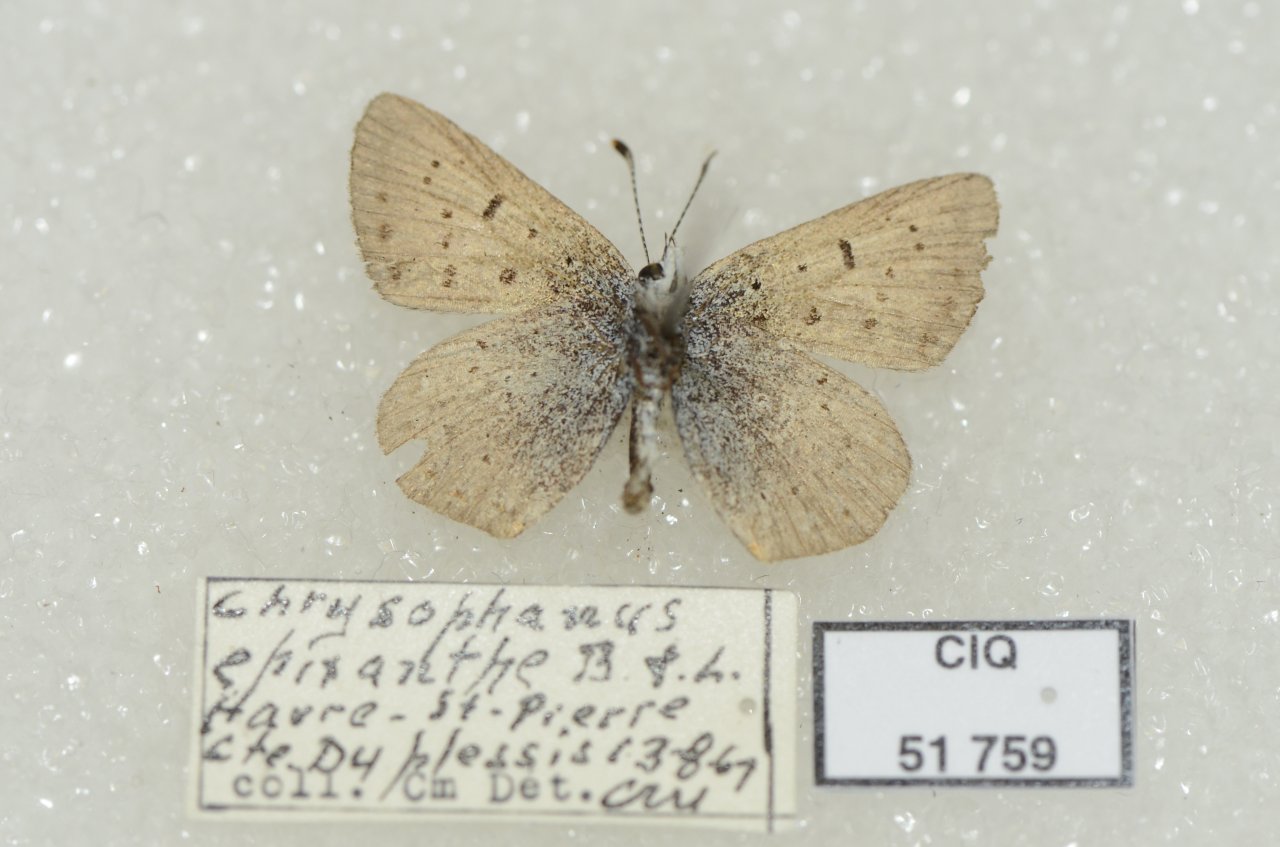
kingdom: Animalia
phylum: Arthropoda
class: Insecta
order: Lepidoptera
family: Sesiidae
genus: Sesia
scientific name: Sesia Lycaena epixanthe
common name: Bog Copper
